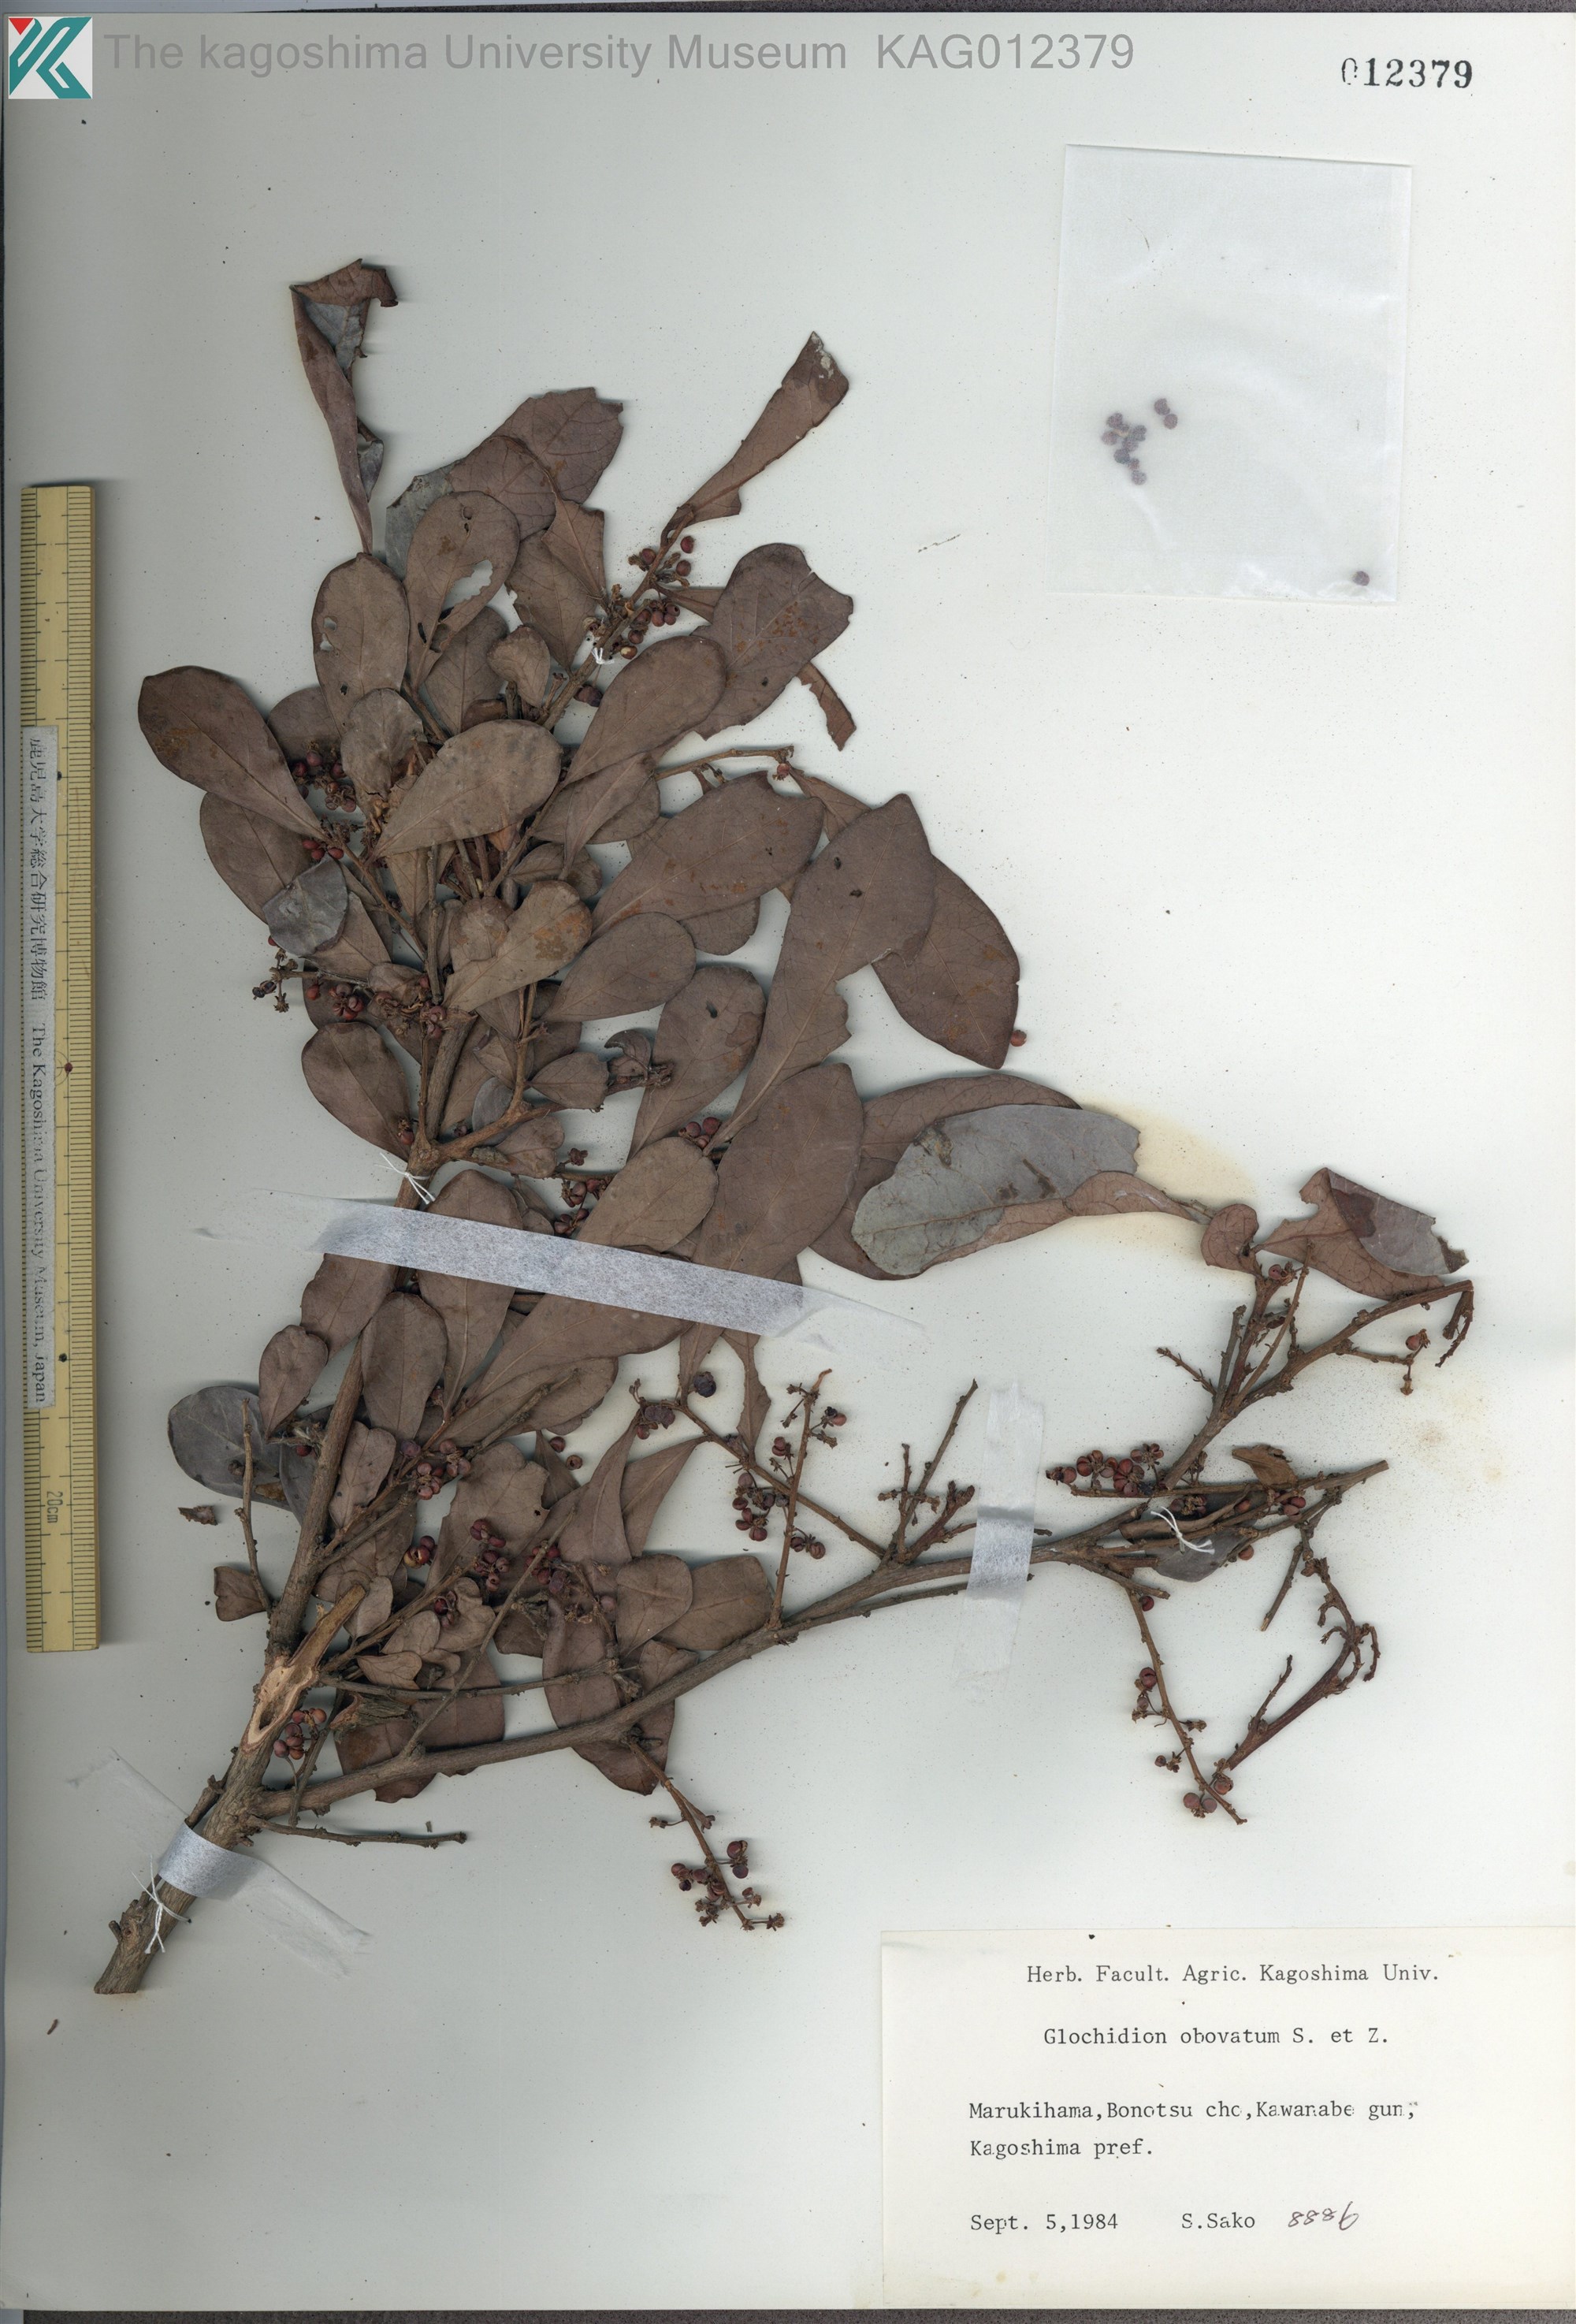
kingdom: Plantae
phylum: Tracheophyta
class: Magnoliopsida
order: Malpighiales
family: Phyllanthaceae
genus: Glochidion
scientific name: Glochidion obovatum
